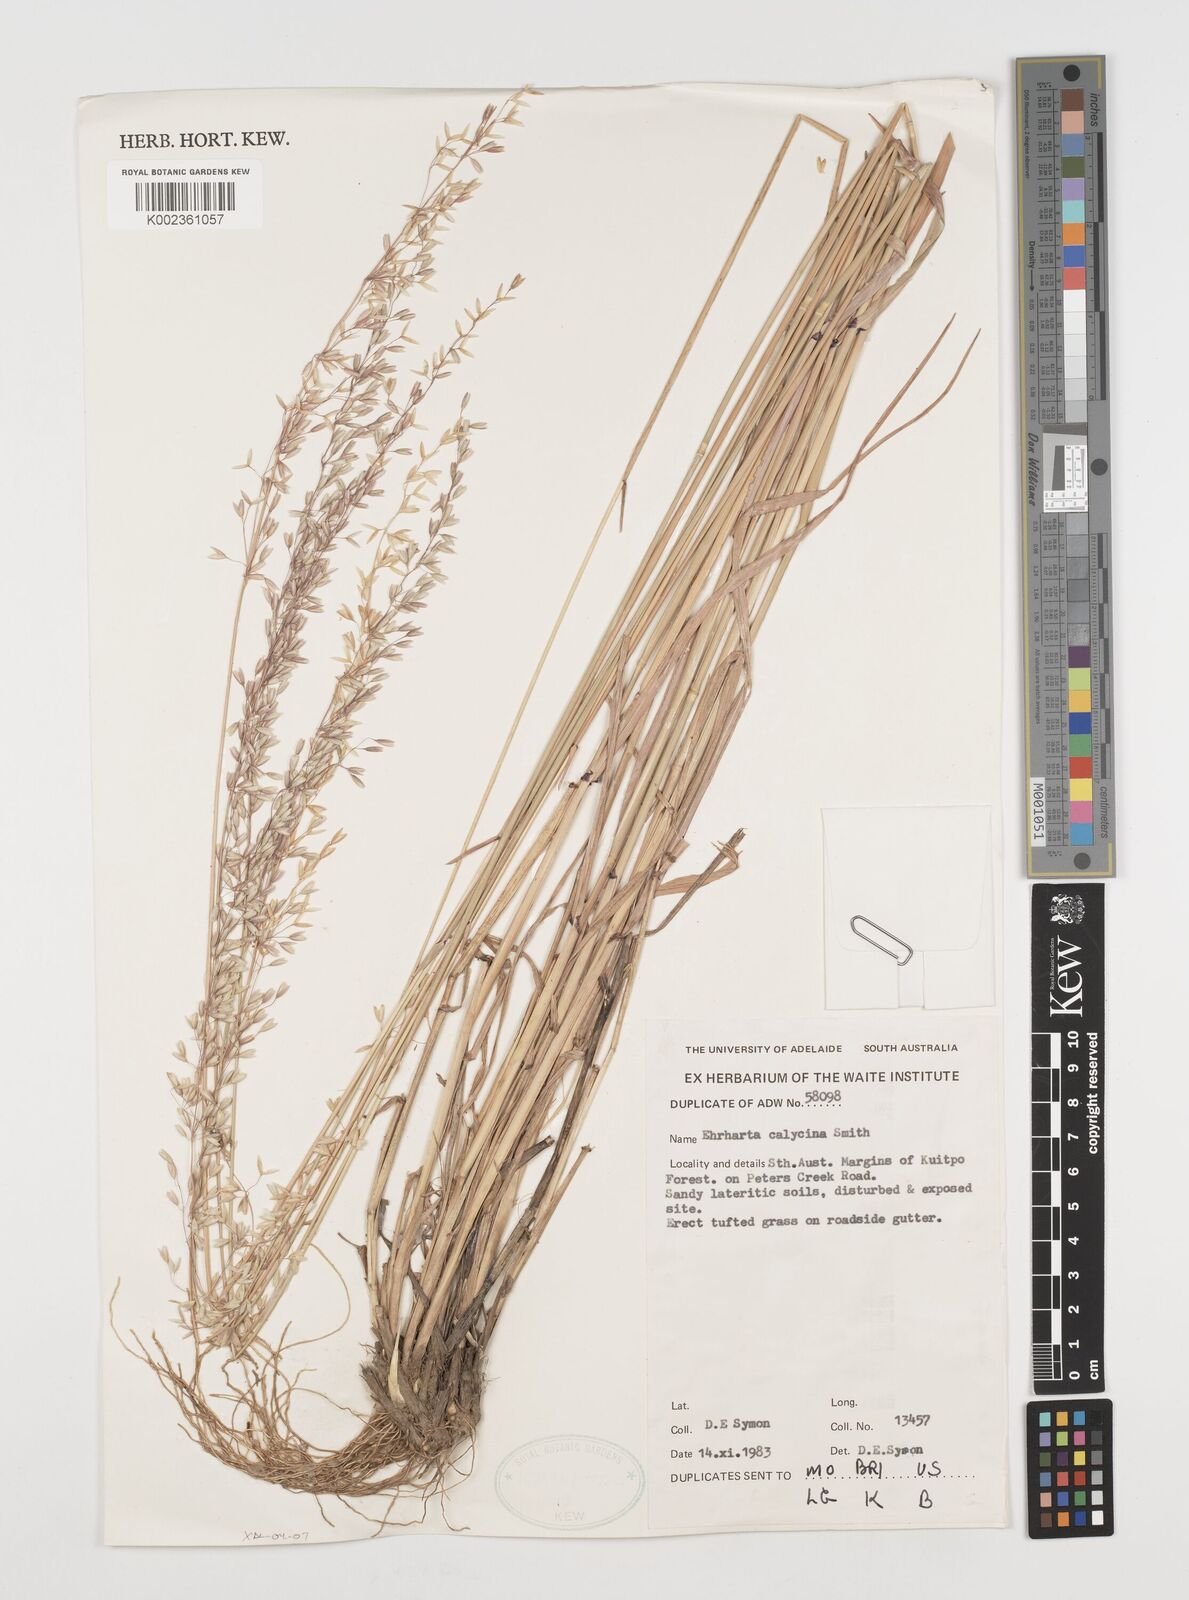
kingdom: Plantae
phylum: Tracheophyta
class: Liliopsida
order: Poales
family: Poaceae
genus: Ehrharta
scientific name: Ehrharta calycina
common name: Perennial veldtgrass
